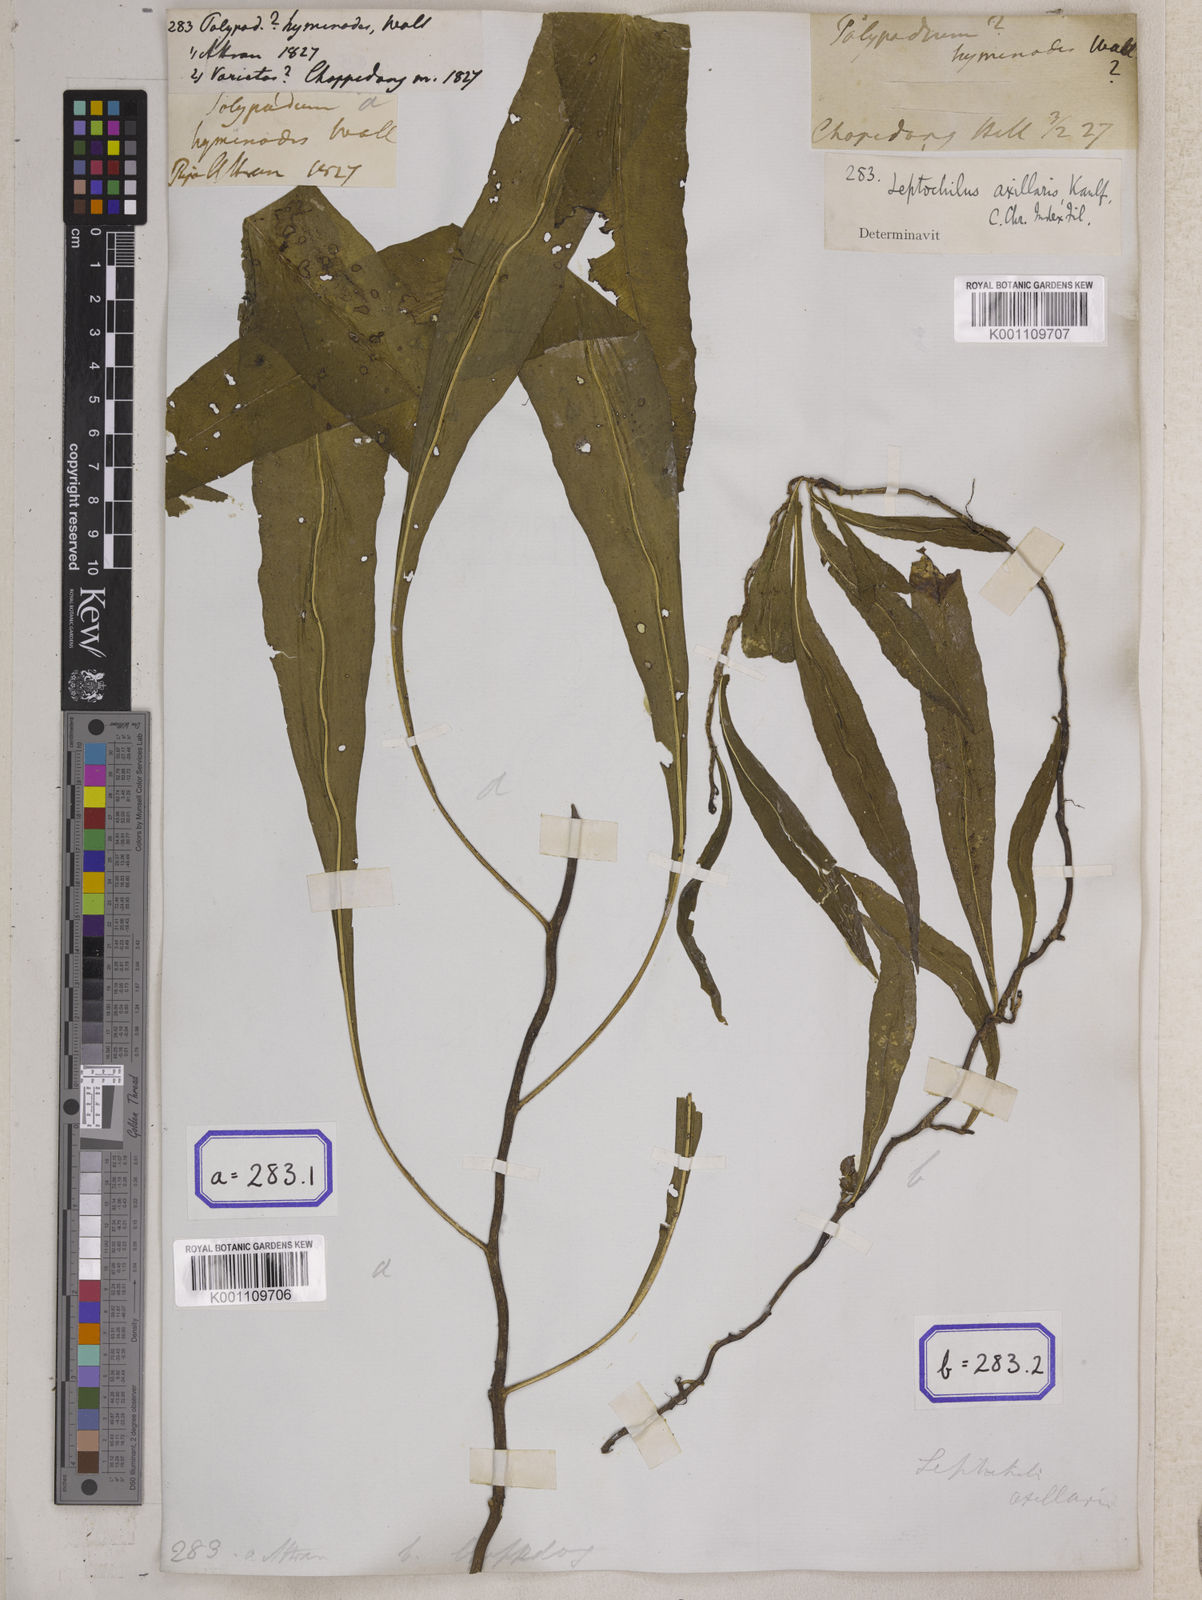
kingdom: Plantae
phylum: Tracheophyta
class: Polypodiopsida
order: Polypodiales
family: Polypodiaceae
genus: Leptochilus
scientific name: Leptochilus axillaris
